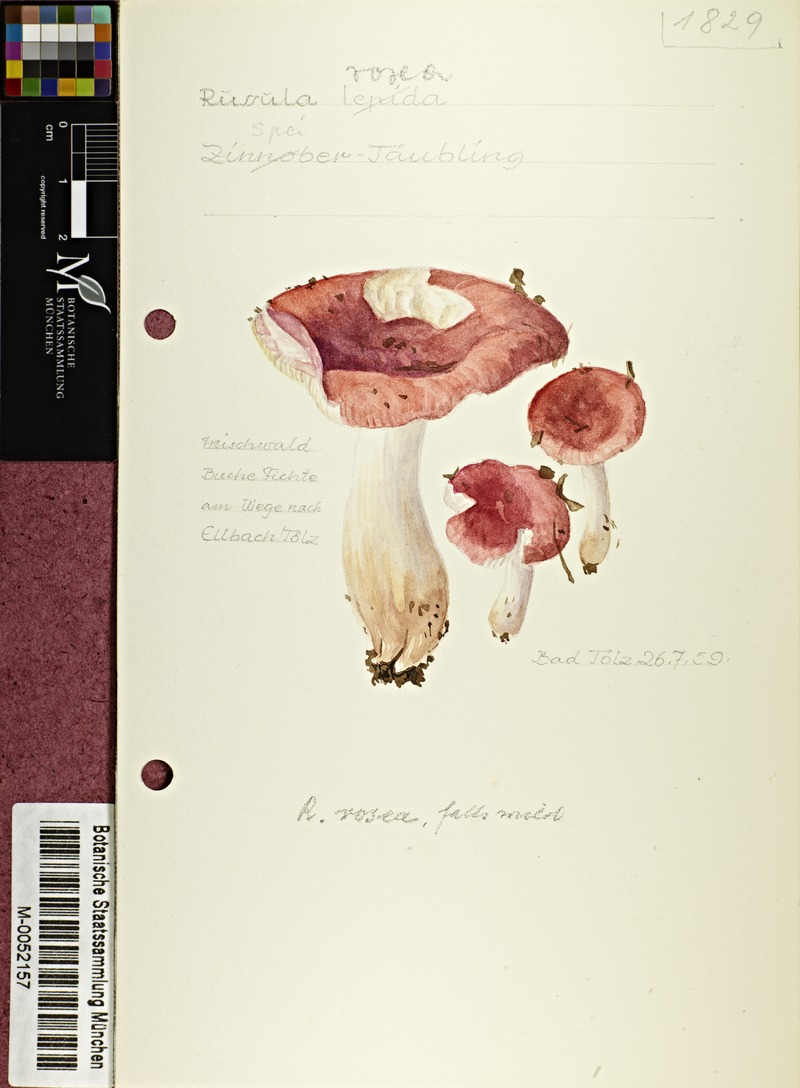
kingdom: Fungi
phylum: Basidiomycota
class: Agaricomycetes
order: Russulales
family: Russulaceae
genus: Russula
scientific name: Russula aurora
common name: Dawn brittlegill
